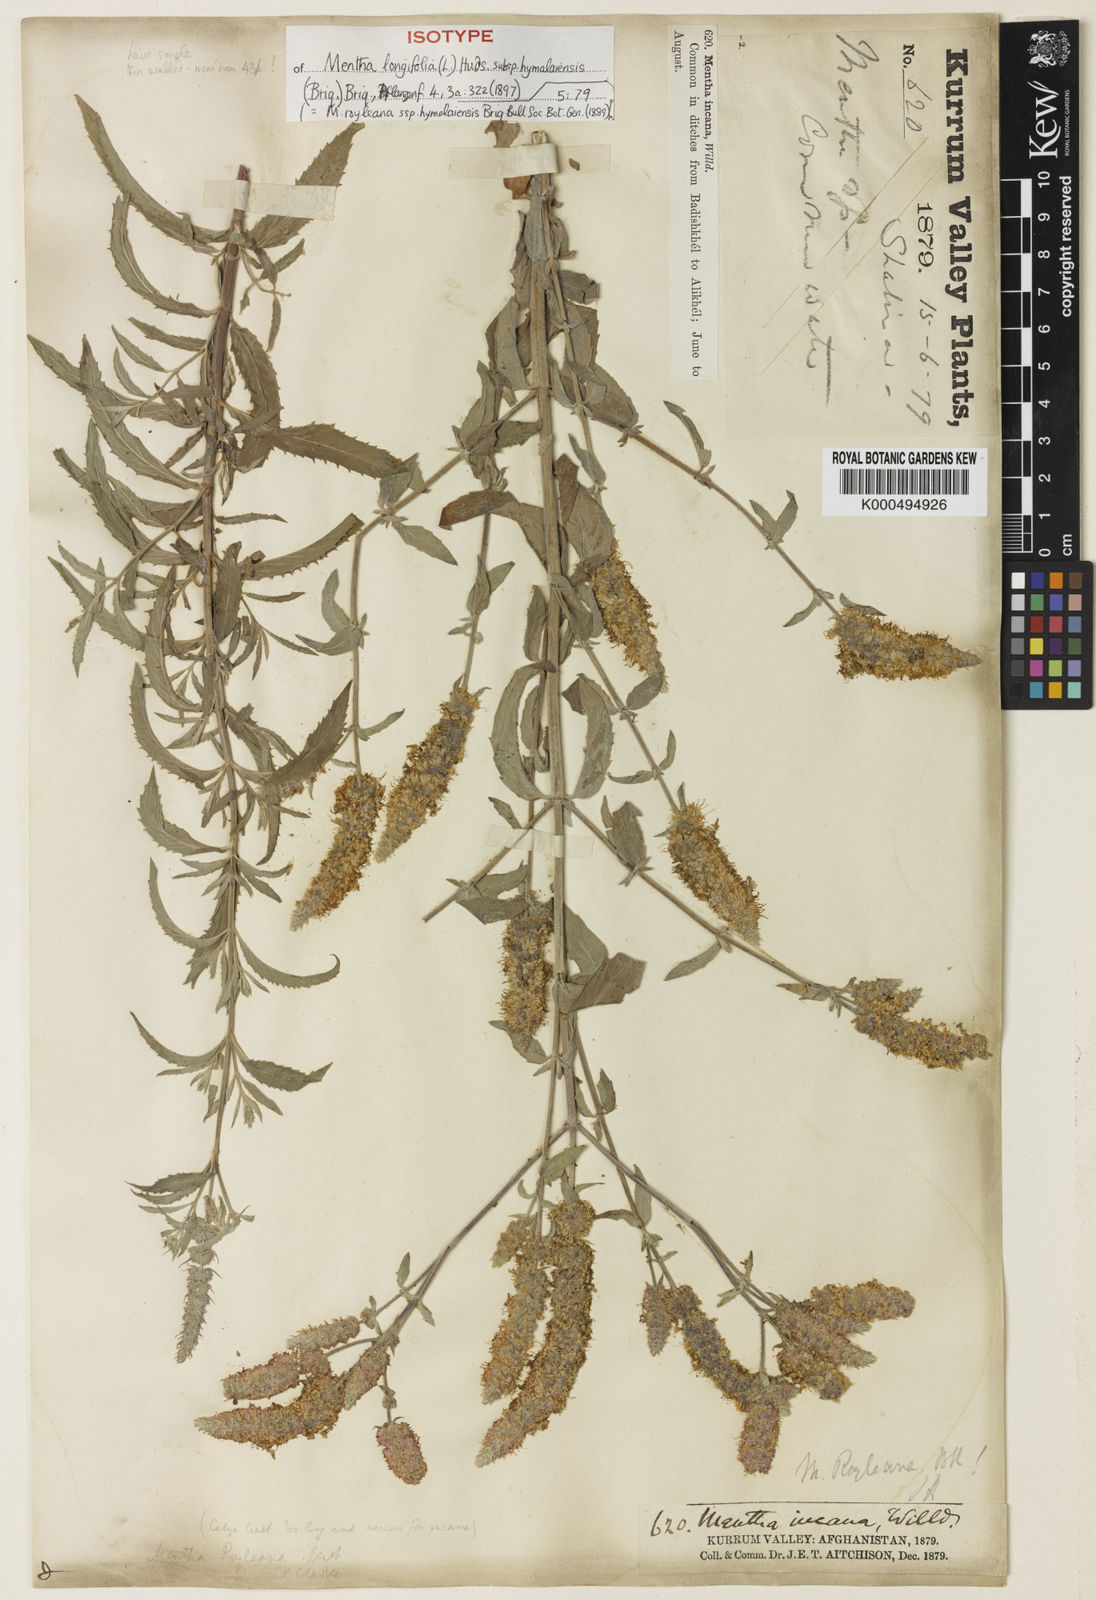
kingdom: Plantae
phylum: Tracheophyta
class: Magnoliopsida
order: Lamiales
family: Lamiaceae
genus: Mentha
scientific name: Mentha
